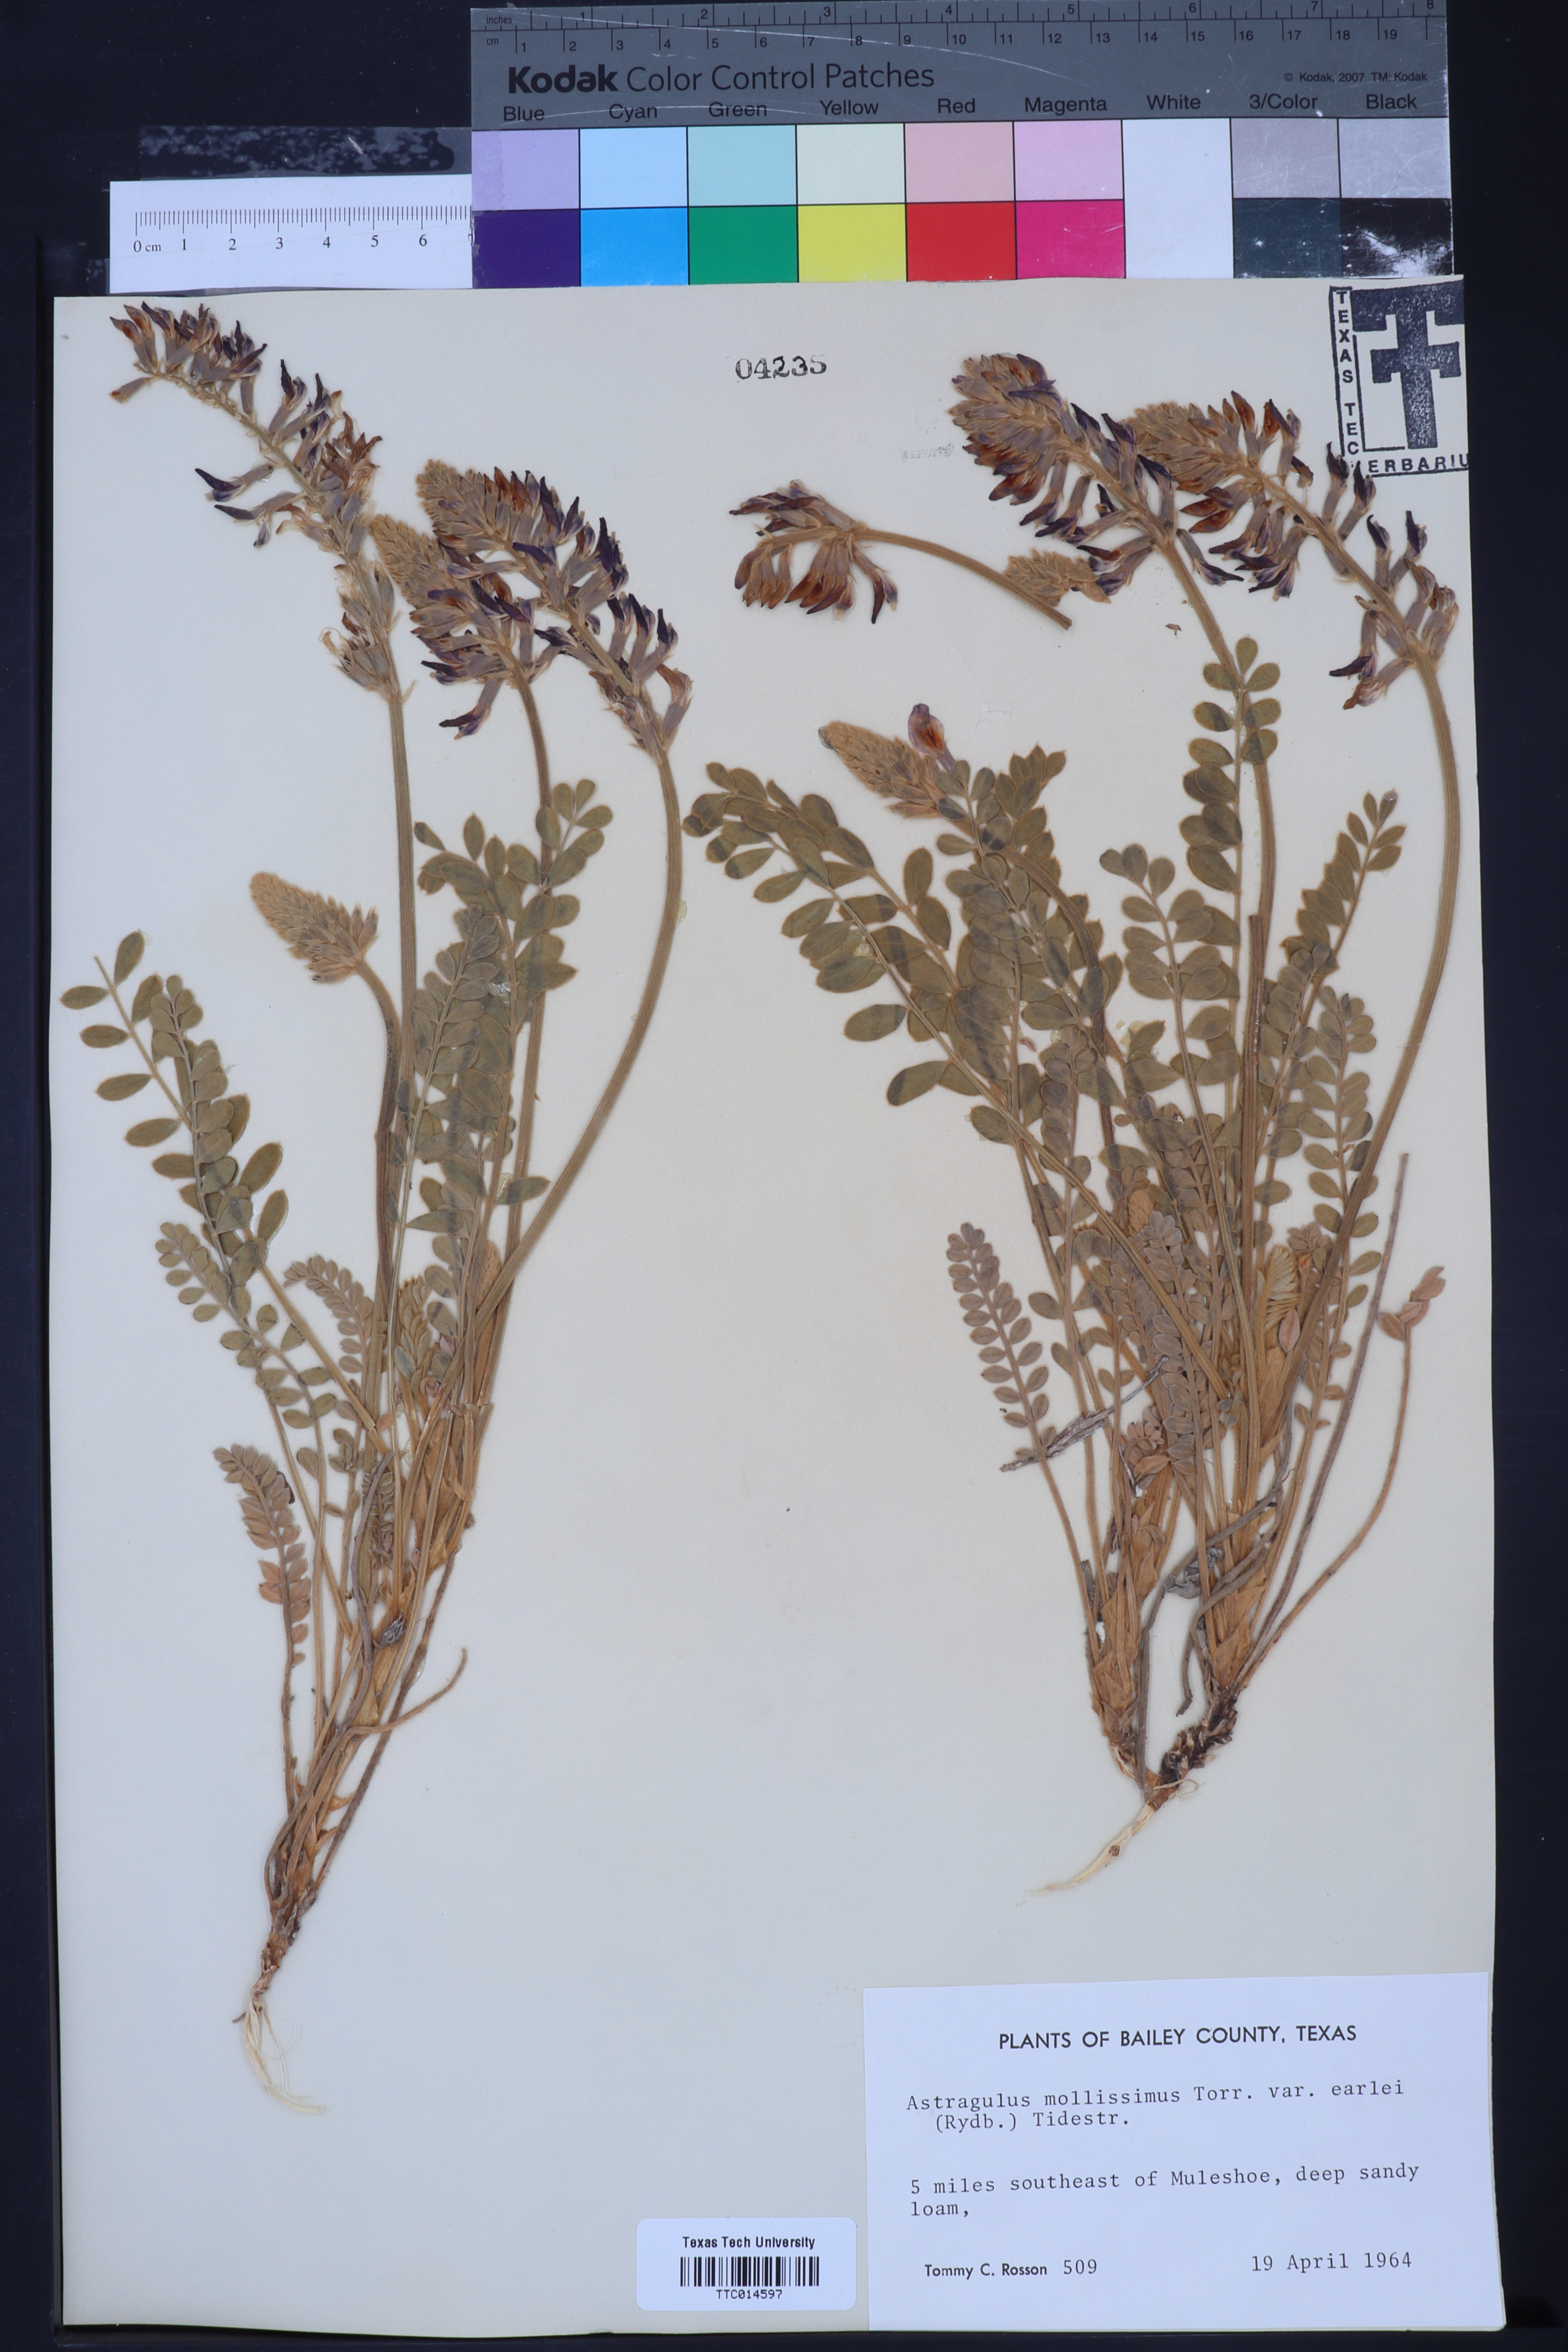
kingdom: Plantae
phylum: Tracheophyta
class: Magnoliopsida
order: Fabales
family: Fabaceae
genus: Astragalus
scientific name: Astragalus missouriensis
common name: Missouri milk-vetch
